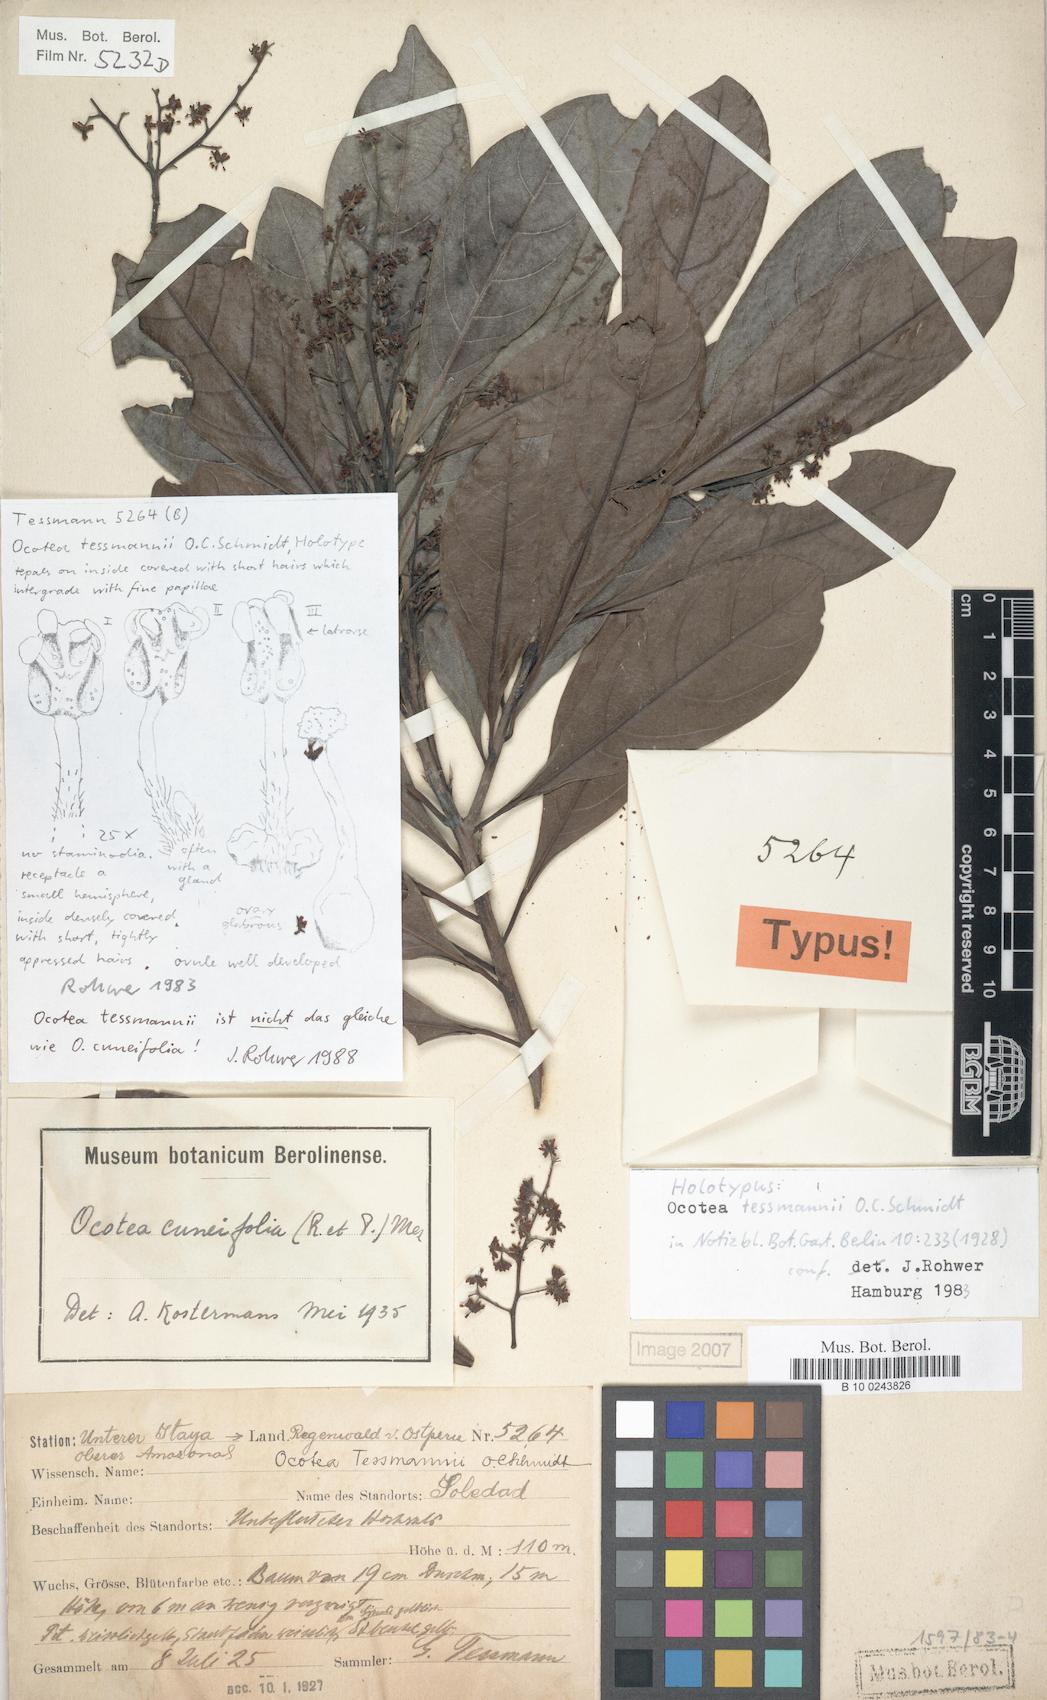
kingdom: Plantae
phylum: Tracheophyta
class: Magnoliopsida
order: Laurales
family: Lauraceae
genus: Ocotea
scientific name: Ocotea tessmannii
